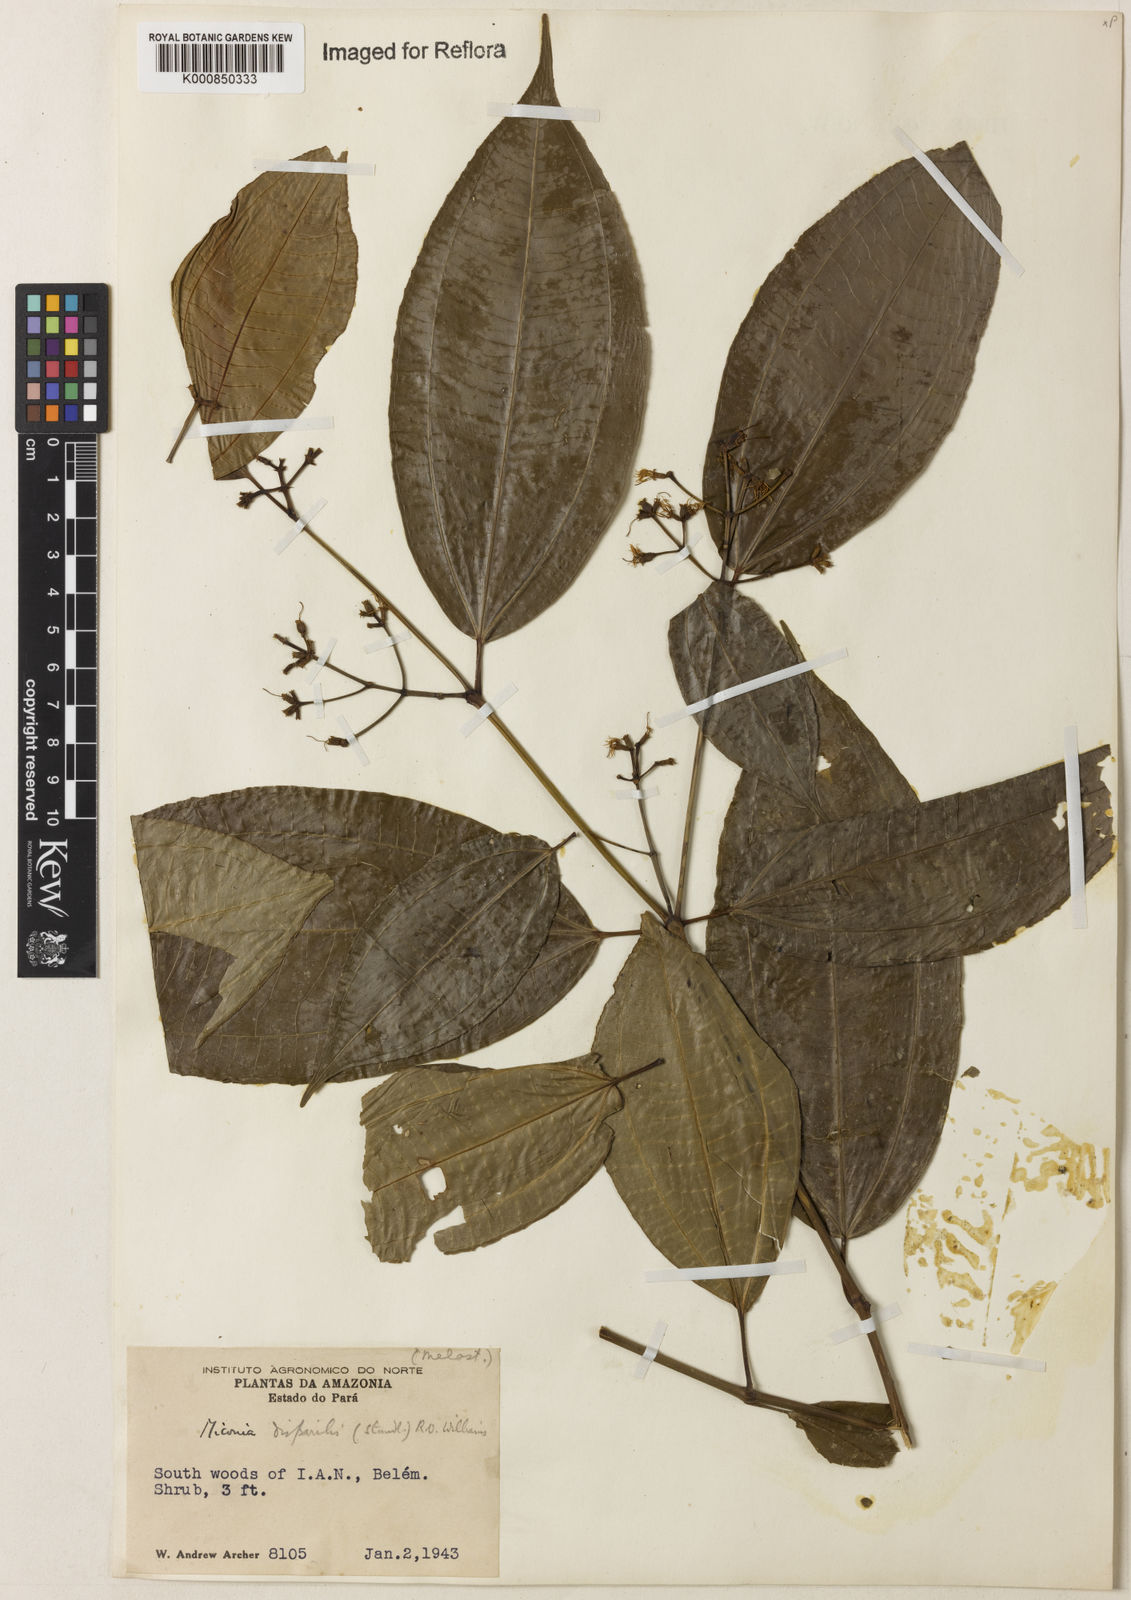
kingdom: Plantae
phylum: Tracheophyta
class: Magnoliopsida
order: Myrtales
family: Melastomataceae
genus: Miconia
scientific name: Miconia lateriflora
